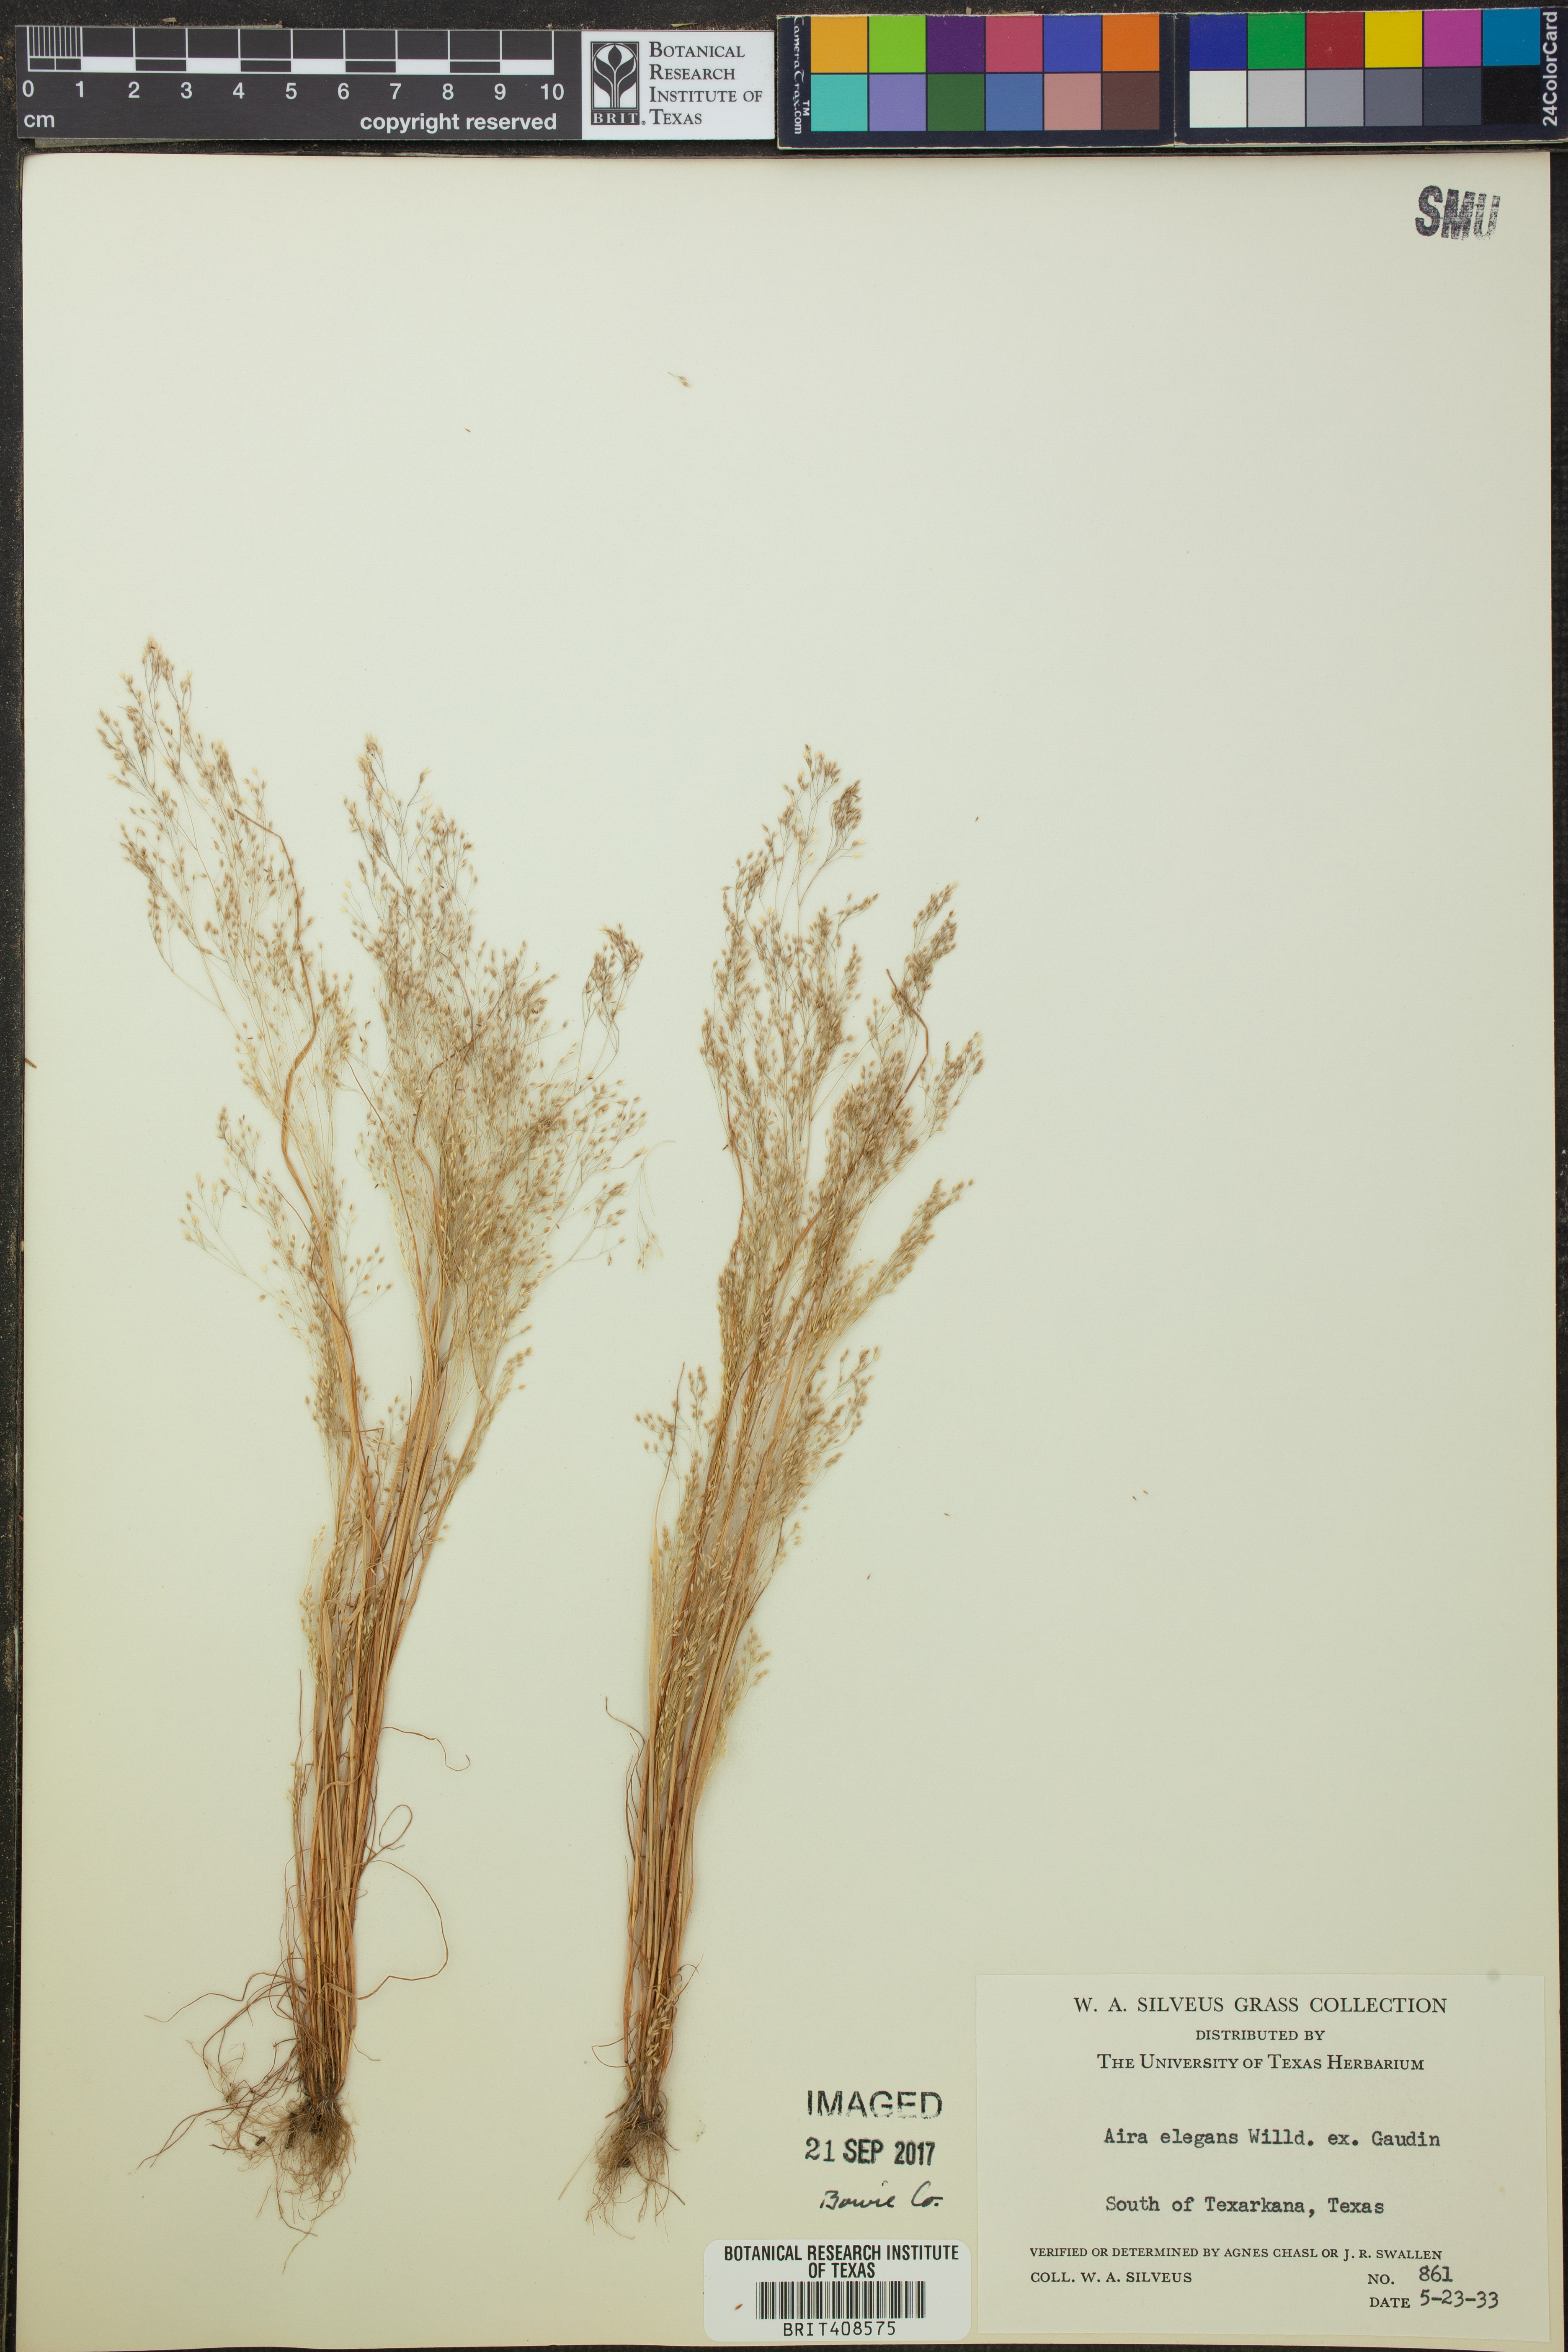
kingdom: Plantae
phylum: Tracheophyta
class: Liliopsida
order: Poales
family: Poaceae
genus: Aira
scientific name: Aira elegans
